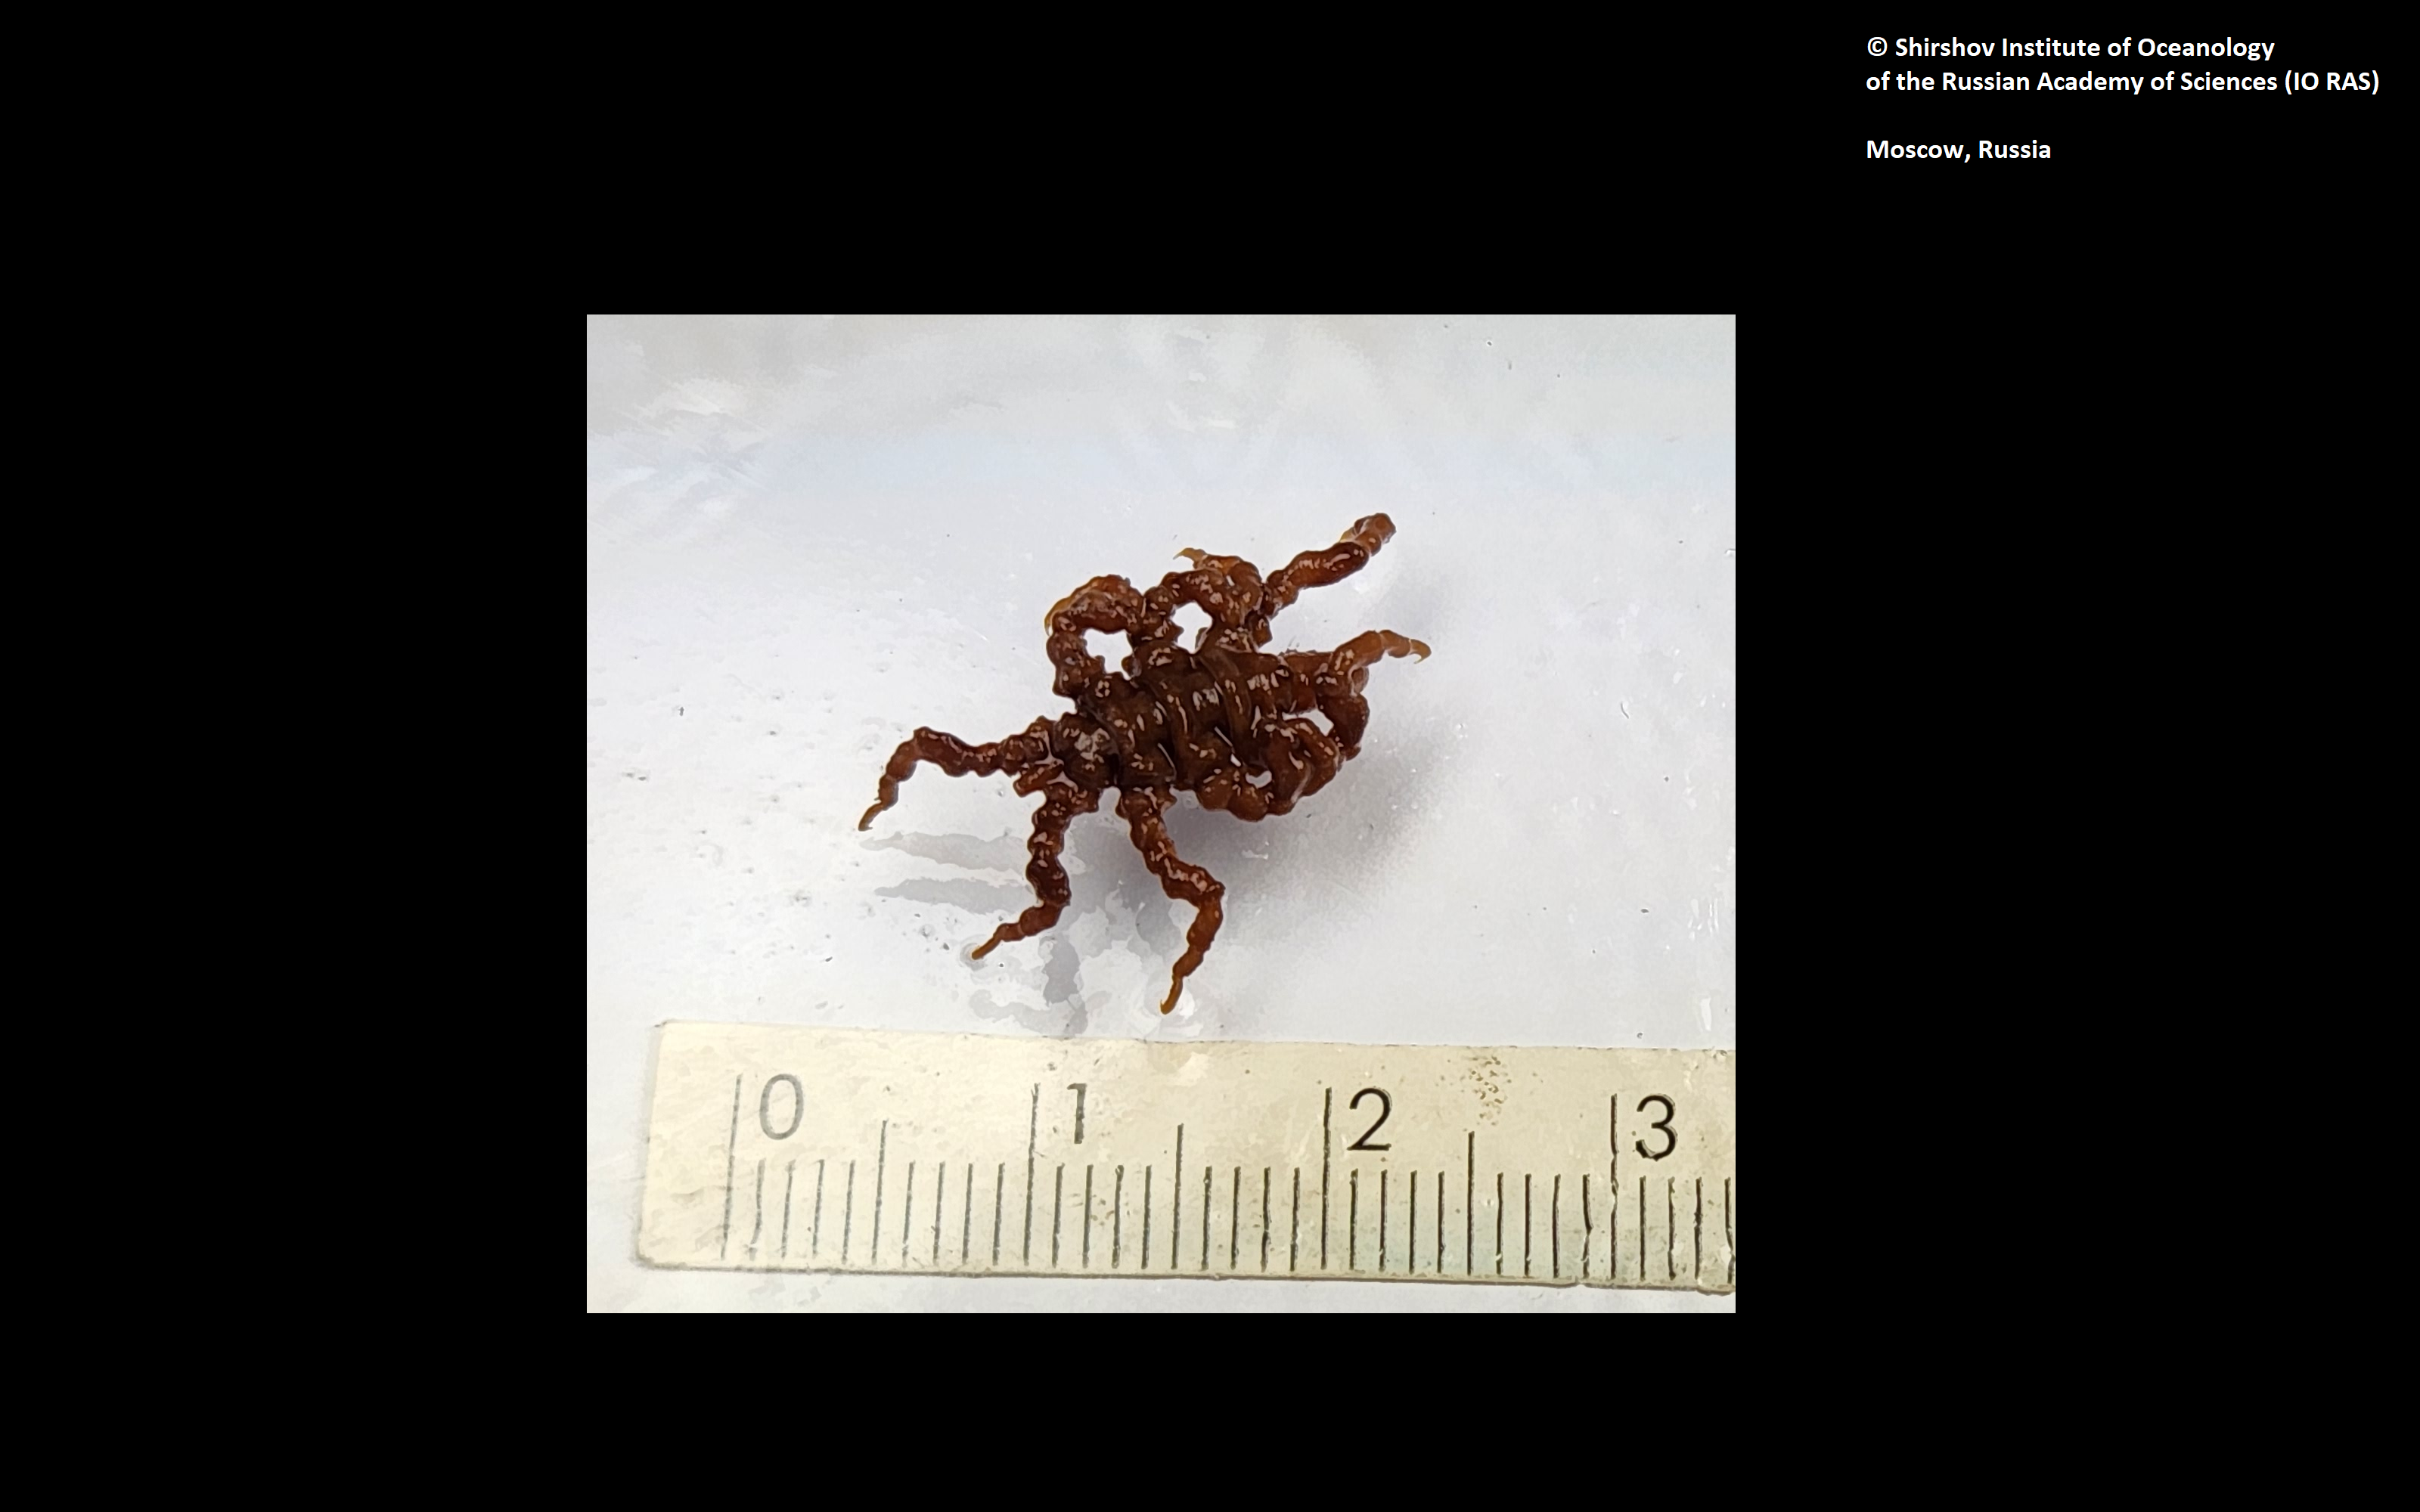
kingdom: Animalia
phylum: Arthropoda
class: Pycnogonida
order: Pantopoda
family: Pycnogonidae
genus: Pycnogonum
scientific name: Pycnogonum aleuticum
